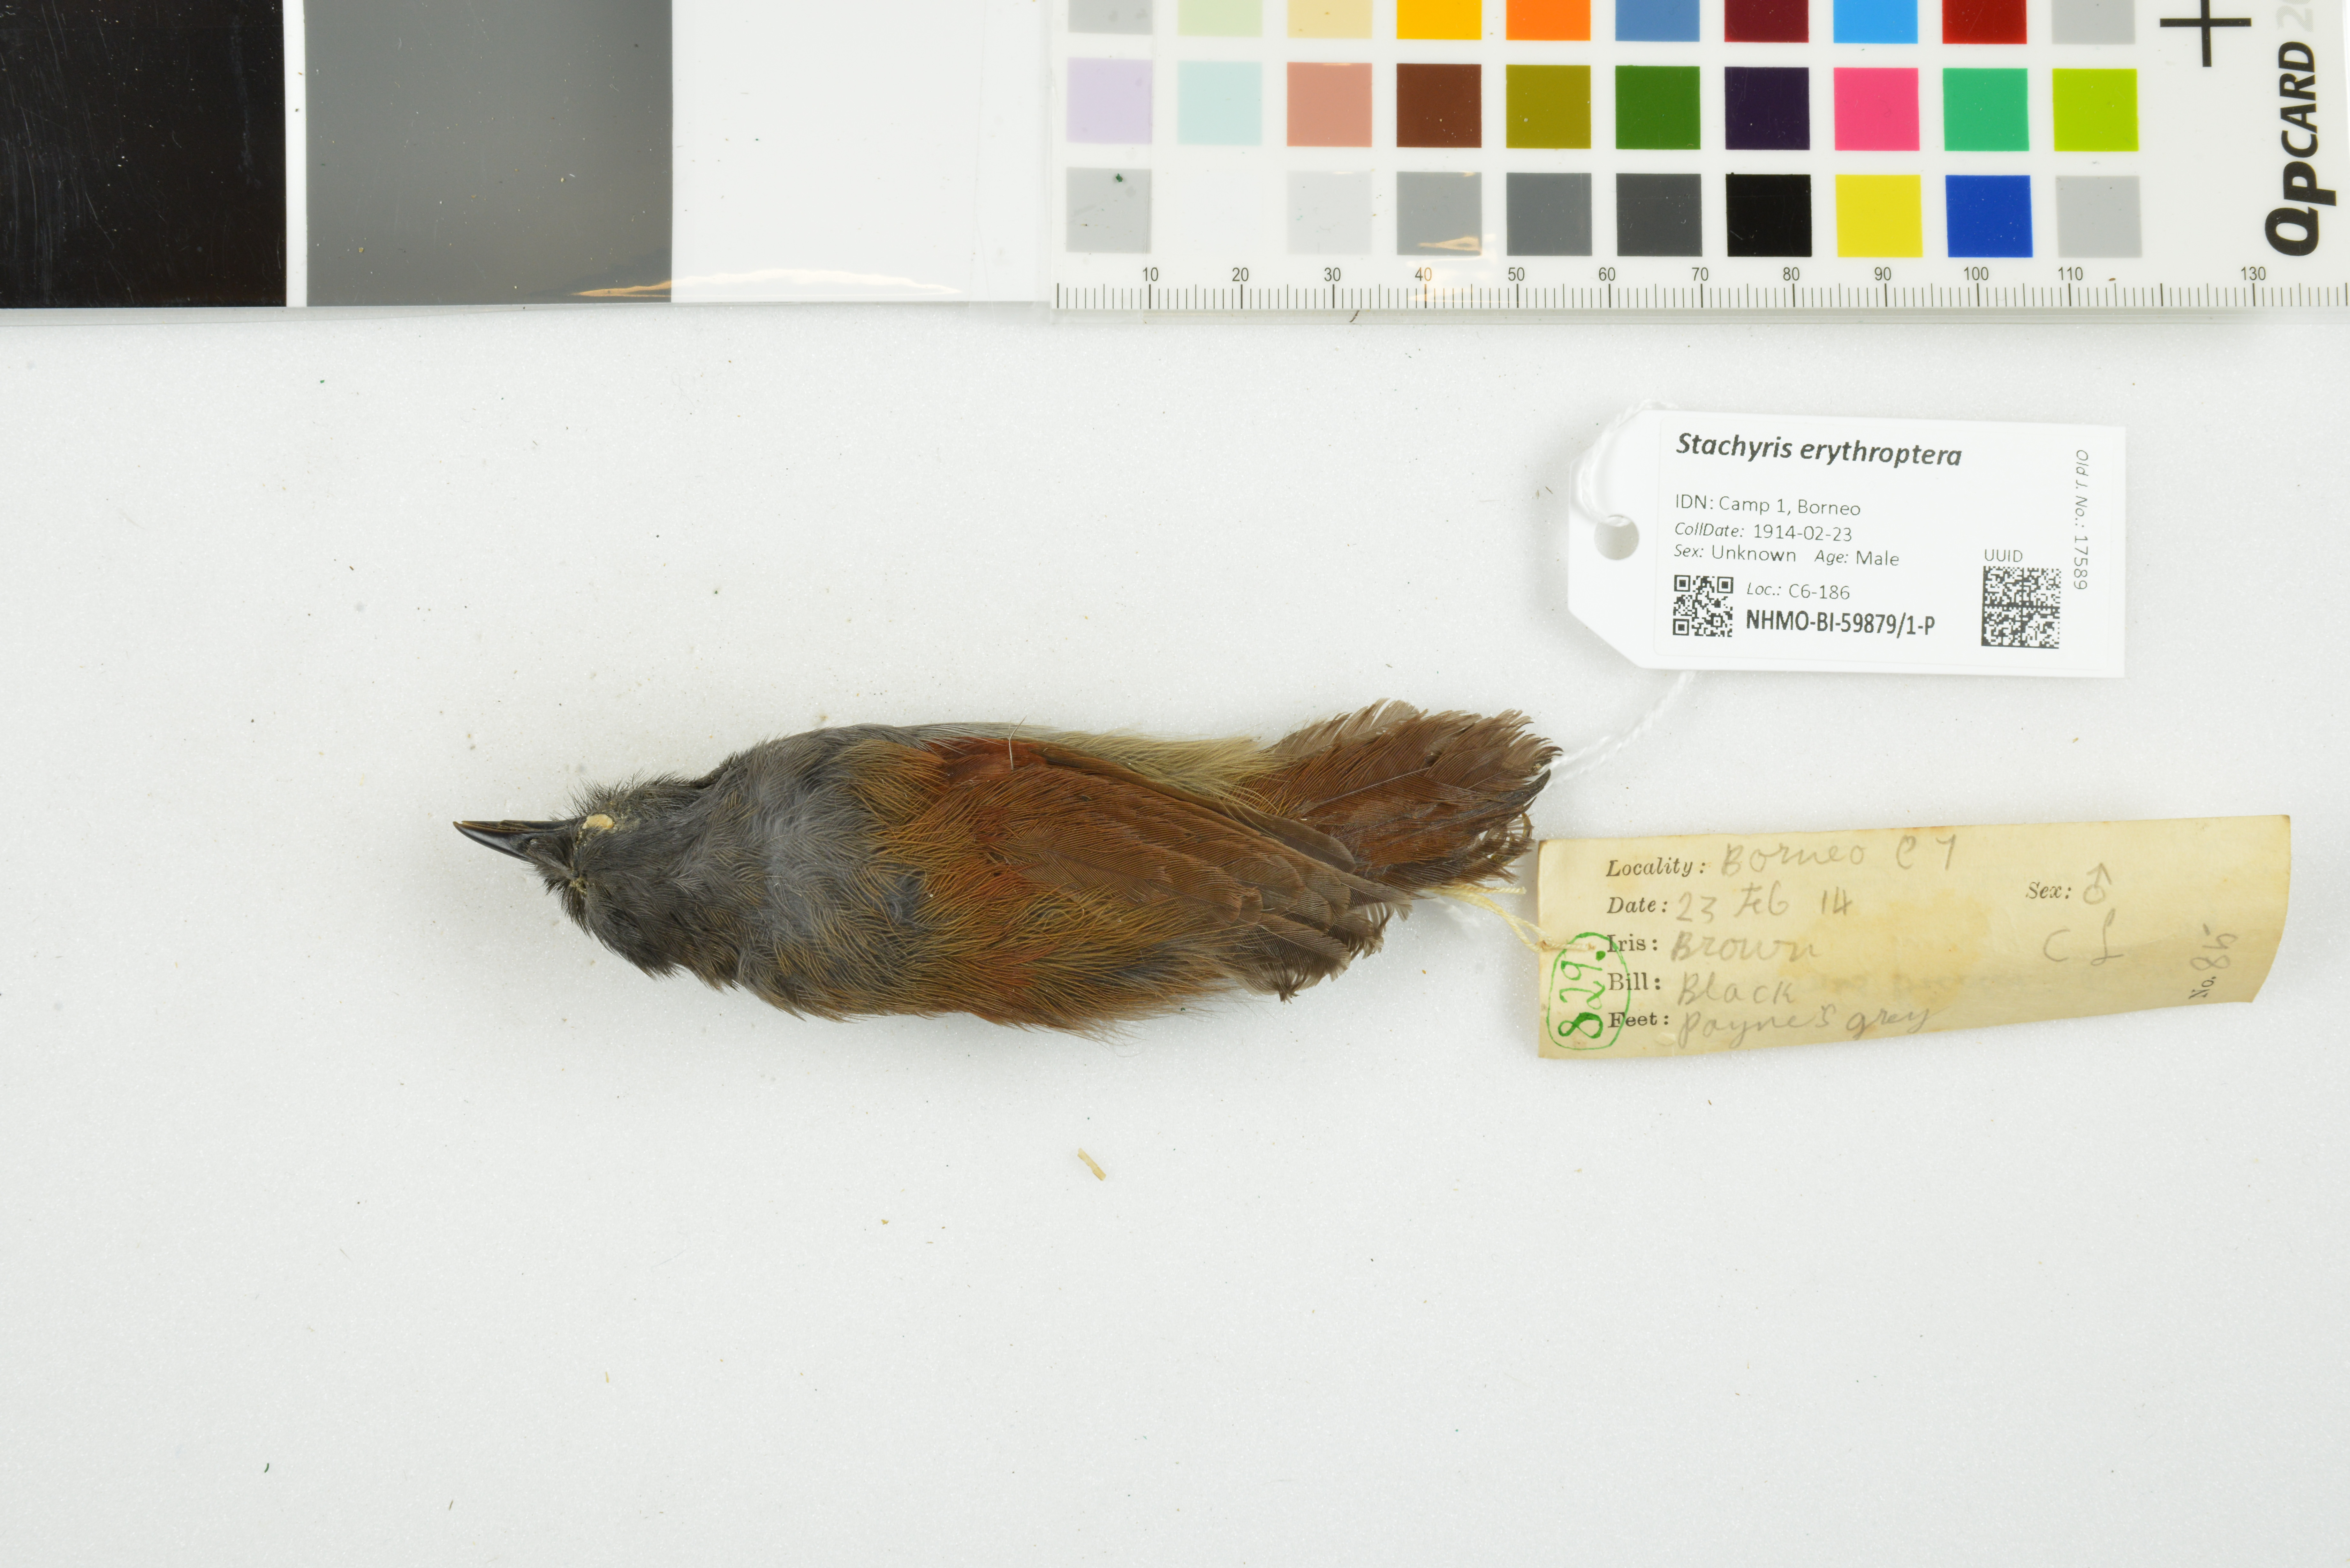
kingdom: Animalia
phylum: Chordata
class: Aves
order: Passeriformes
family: Timaliidae
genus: Stachyris
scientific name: Stachyris erythroptera
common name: Chestnut-winged babbler
